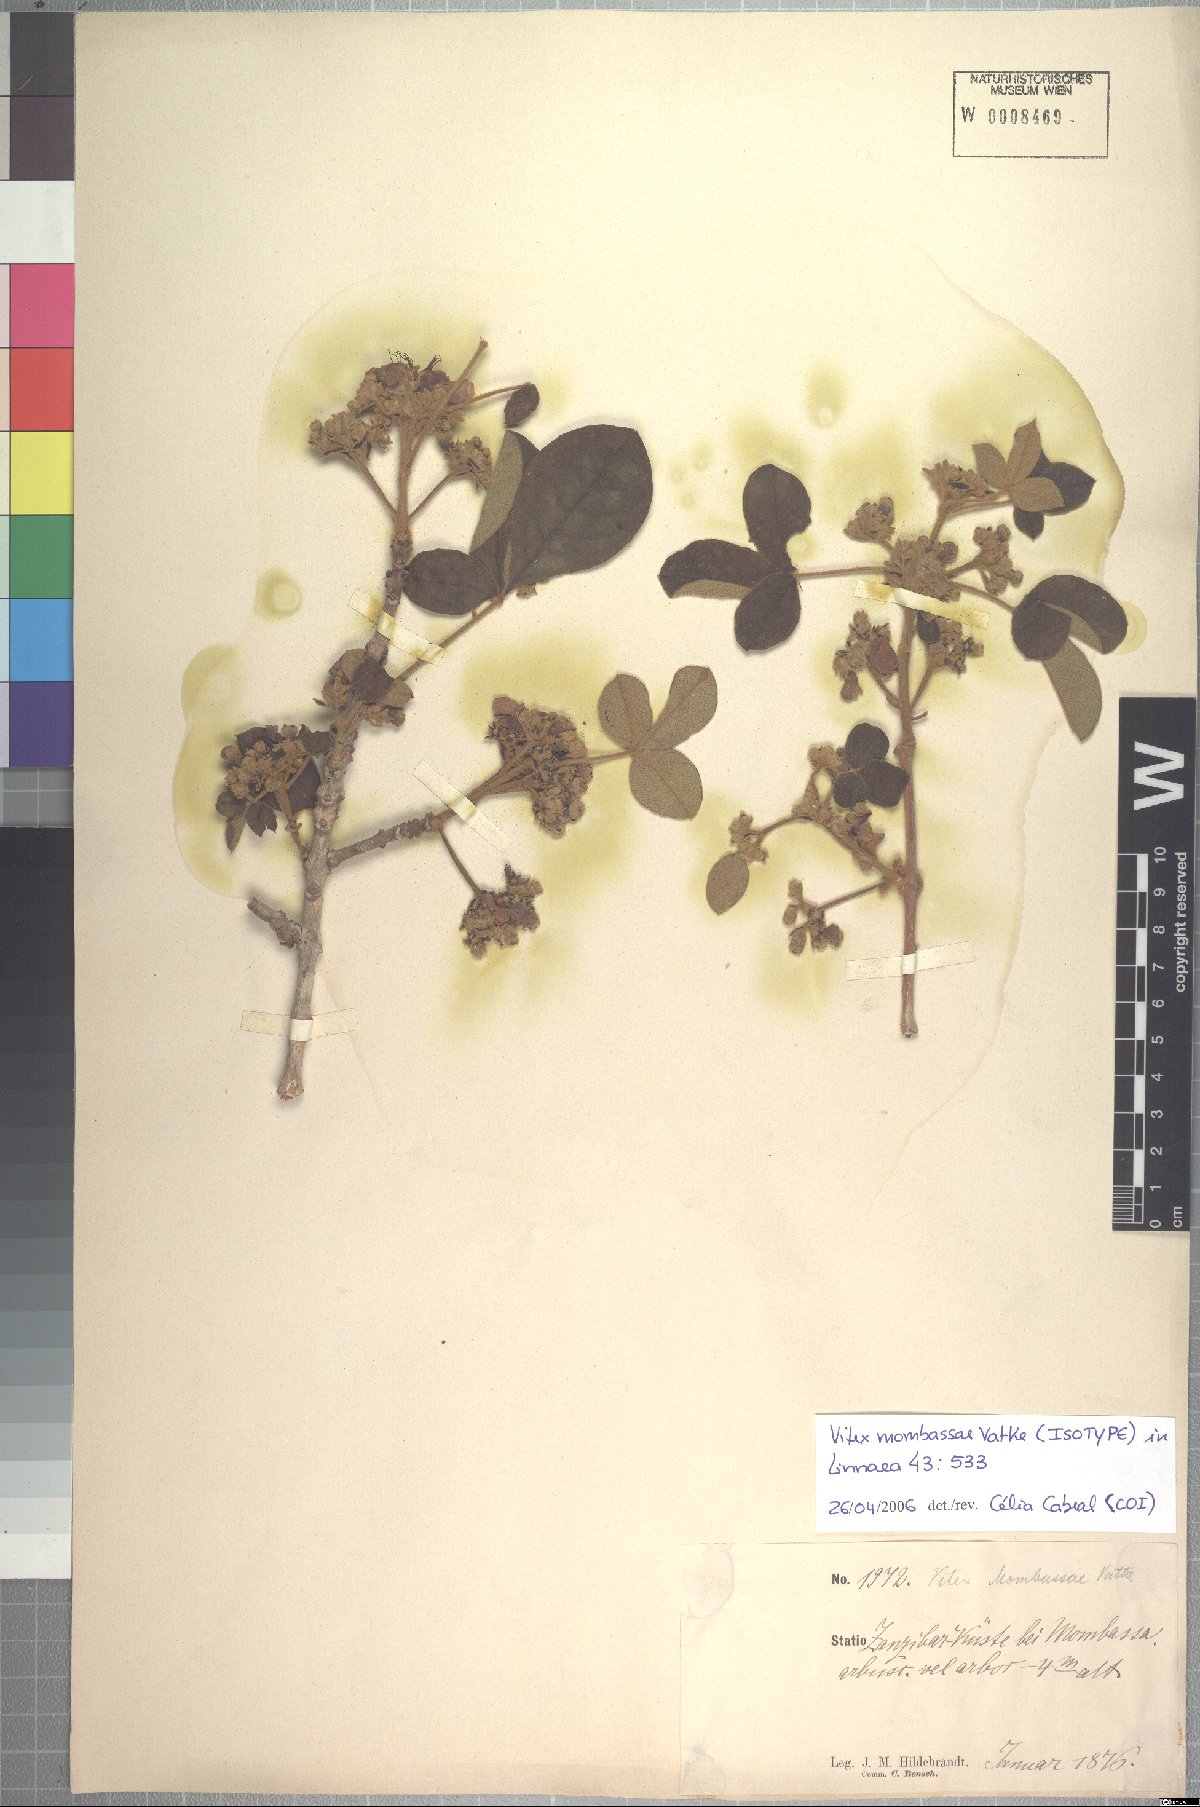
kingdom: Plantae
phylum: Tracheophyta
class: Magnoliopsida
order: Lamiales
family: Lamiaceae
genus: Vitex
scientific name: Vitex mombassae
